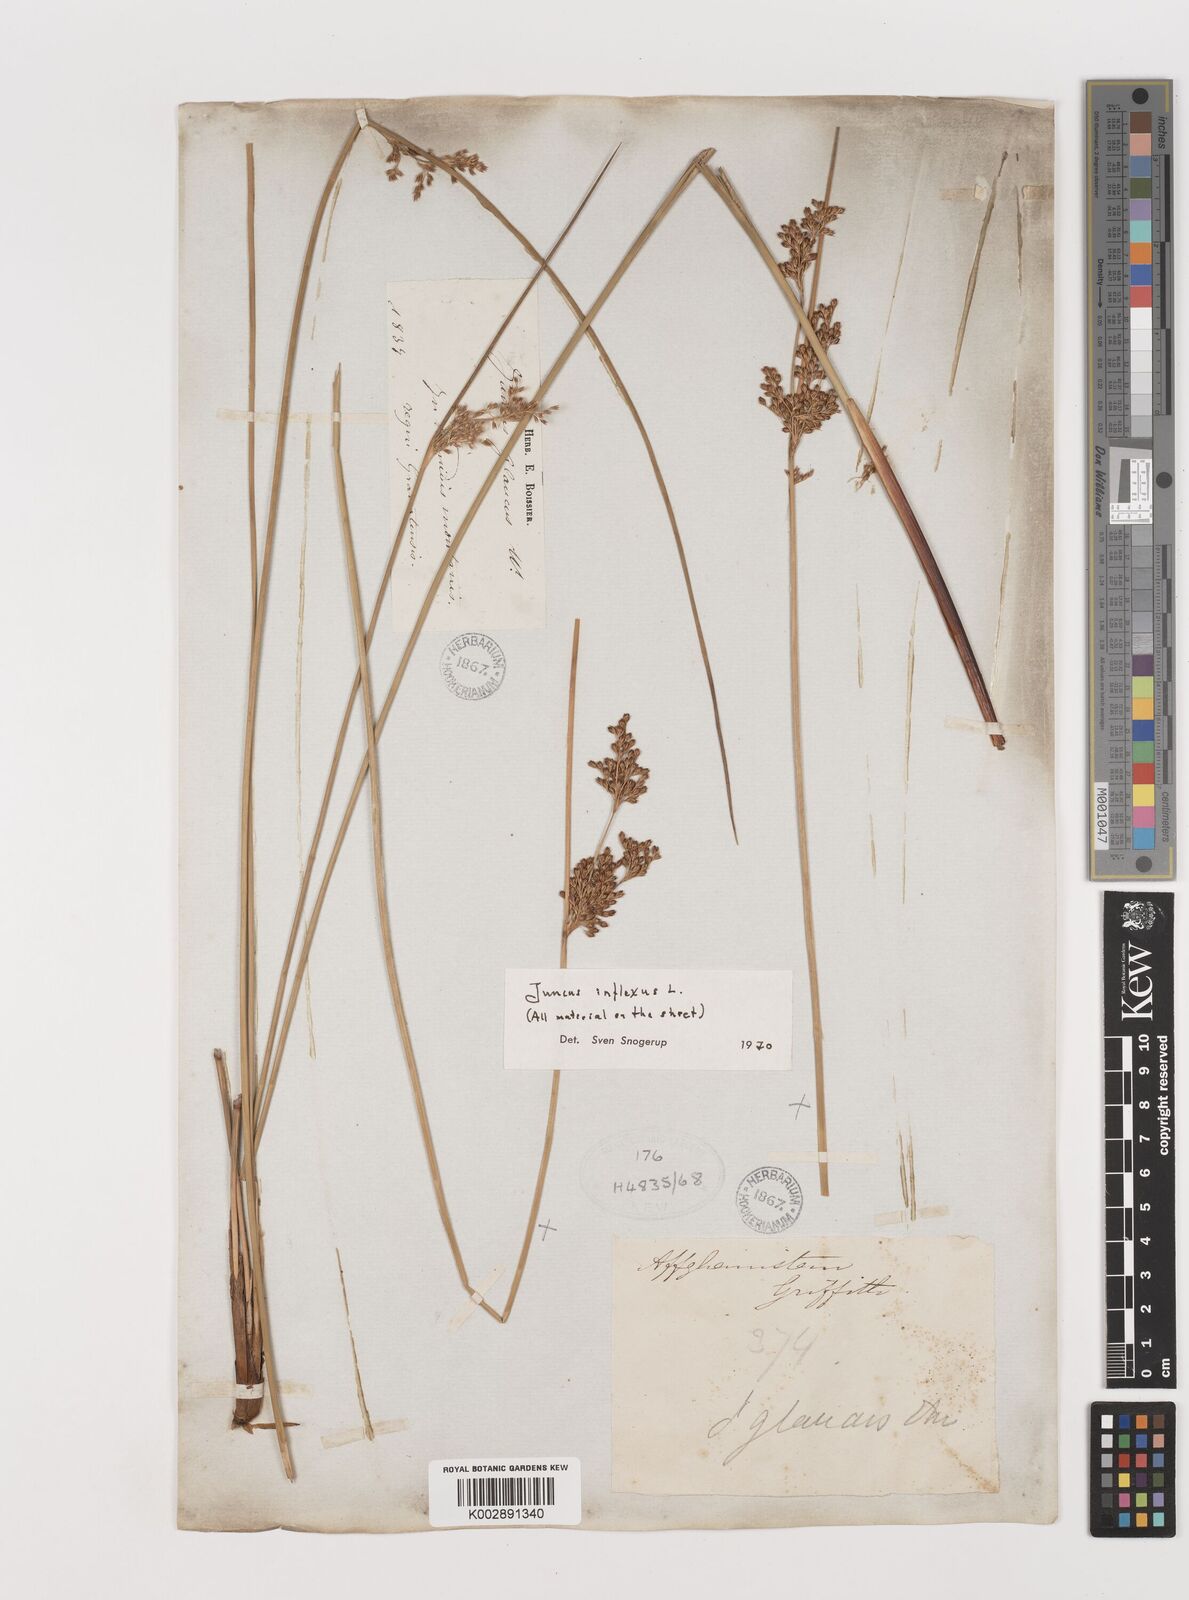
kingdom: Plantae
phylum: Tracheophyta
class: Liliopsida
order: Poales
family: Juncaceae
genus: Juncus
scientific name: Juncus inflexus
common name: Hard rush
